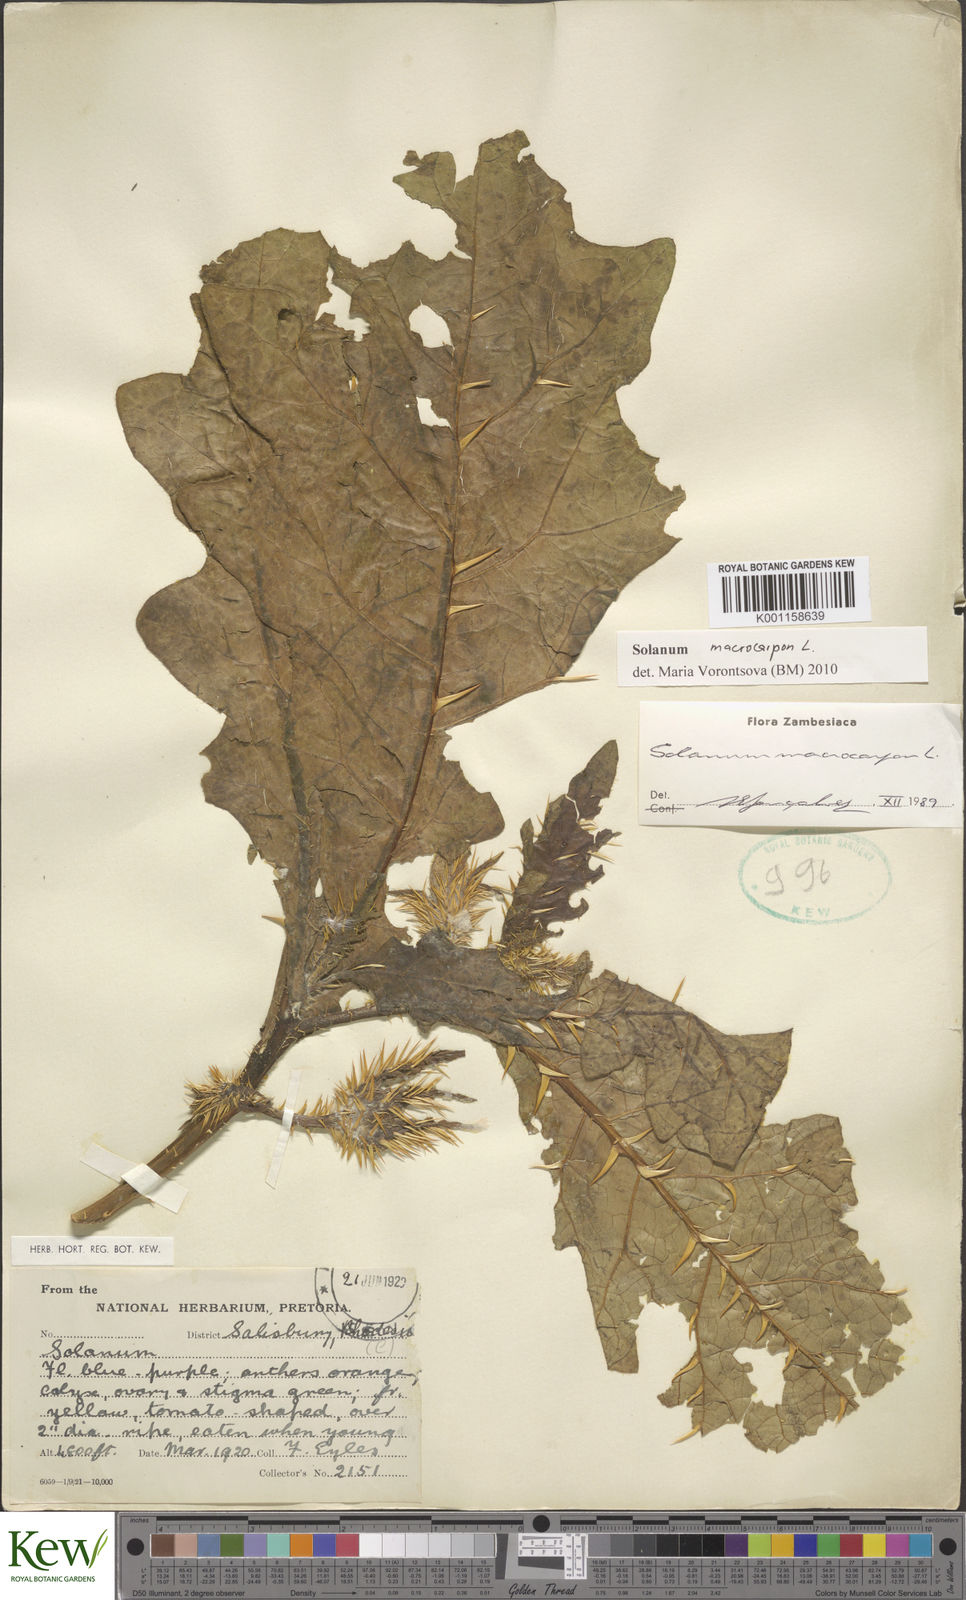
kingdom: Plantae
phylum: Tracheophyta
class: Magnoliopsida
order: Solanales
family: Solanaceae
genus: Solanum
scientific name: Solanum macrocarpon
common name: African eggplant
